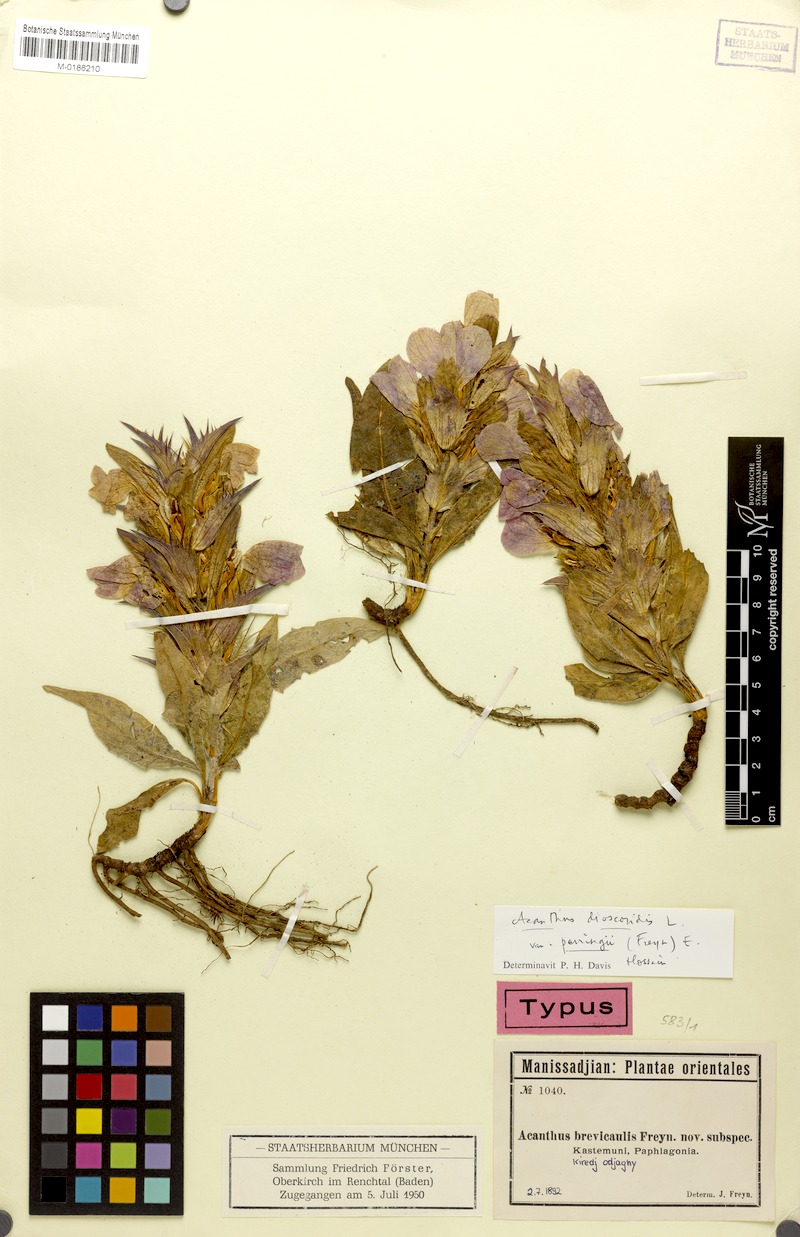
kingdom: Plantae
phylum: Tracheophyta
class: Magnoliopsida
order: Lamiales
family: Acanthaceae
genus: Acanthus
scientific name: Acanthus dioscoridis
